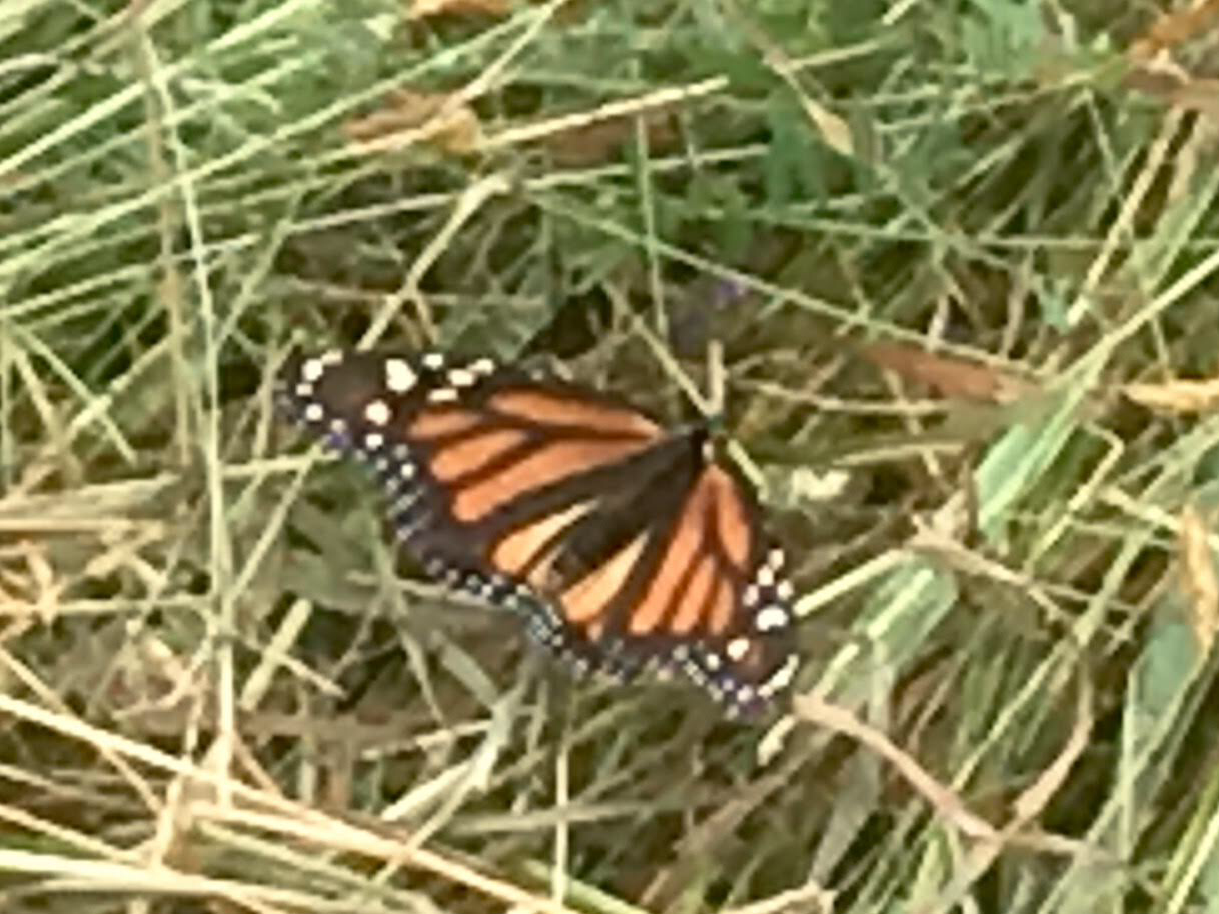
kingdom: Animalia
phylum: Arthropoda
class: Insecta
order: Lepidoptera
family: Nymphalidae
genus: Danaus
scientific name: Danaus plexippus
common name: Monarch
